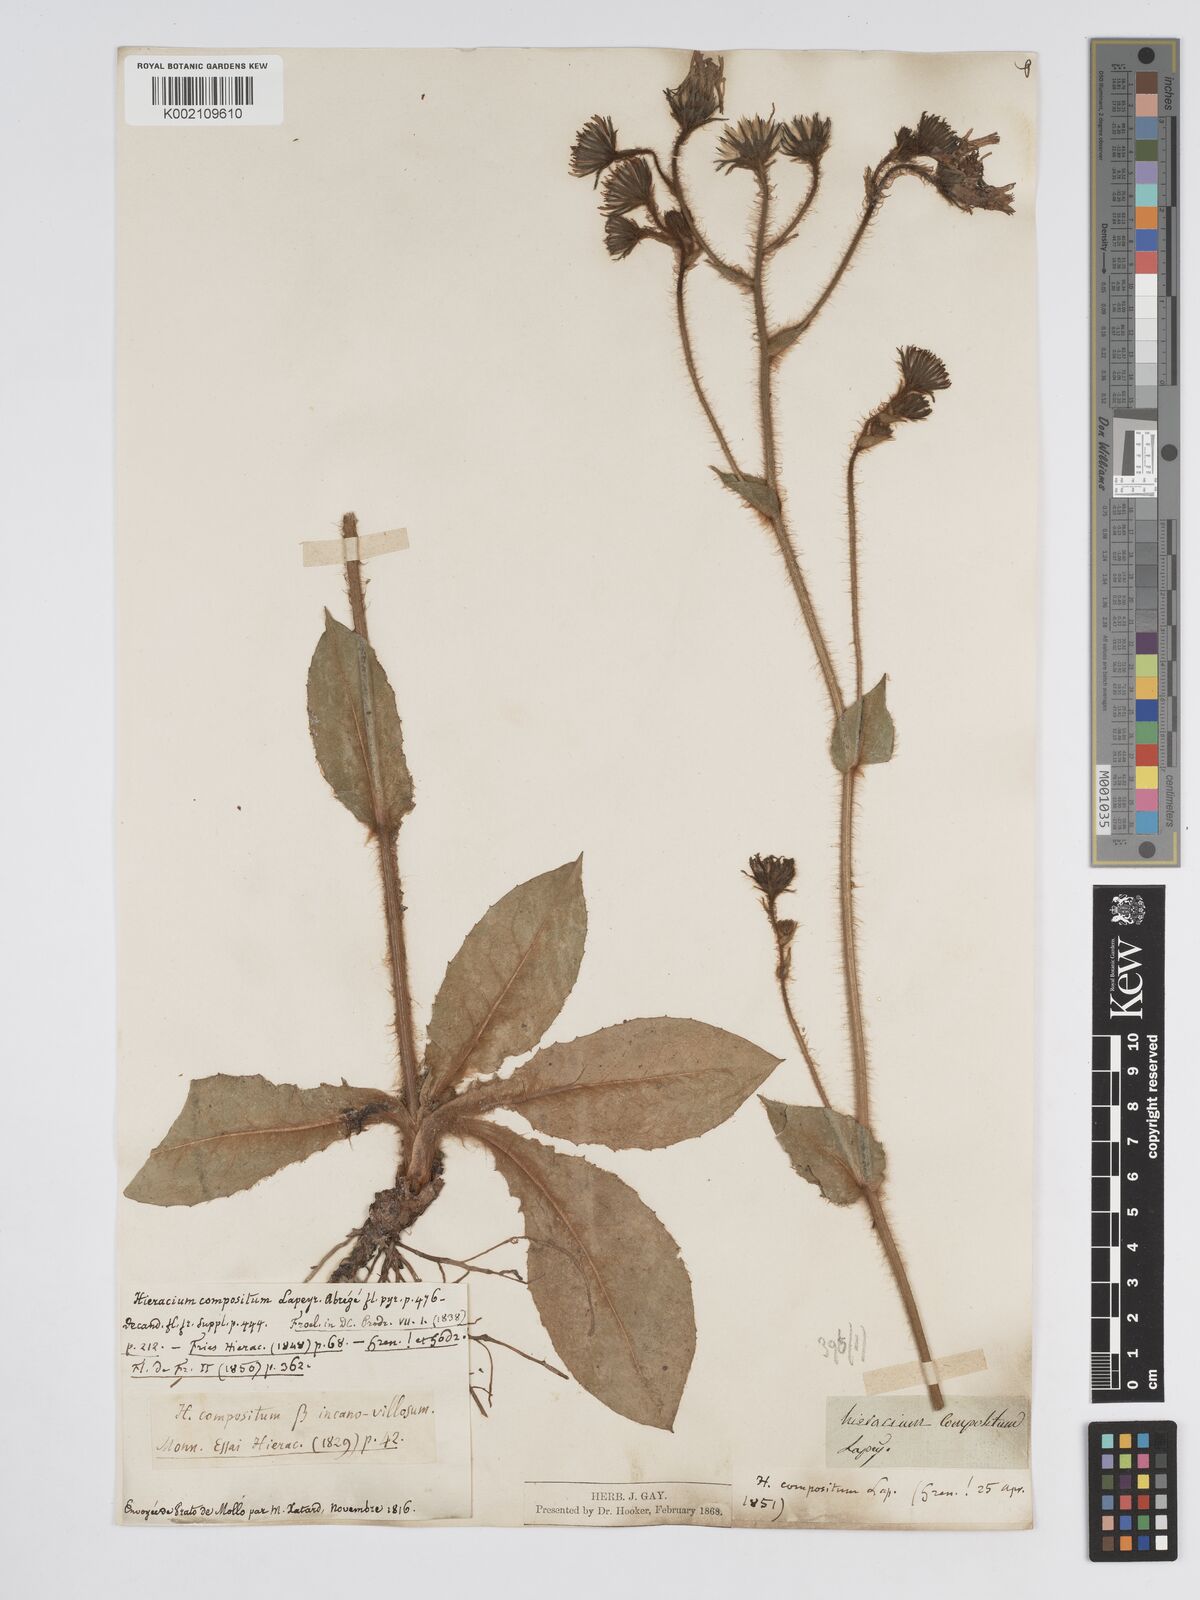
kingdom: Plantae
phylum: Tracheophyta
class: Magnoliopsida
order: Asterales
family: Asteraceae
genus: Hieracium
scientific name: Hieracium compositum
